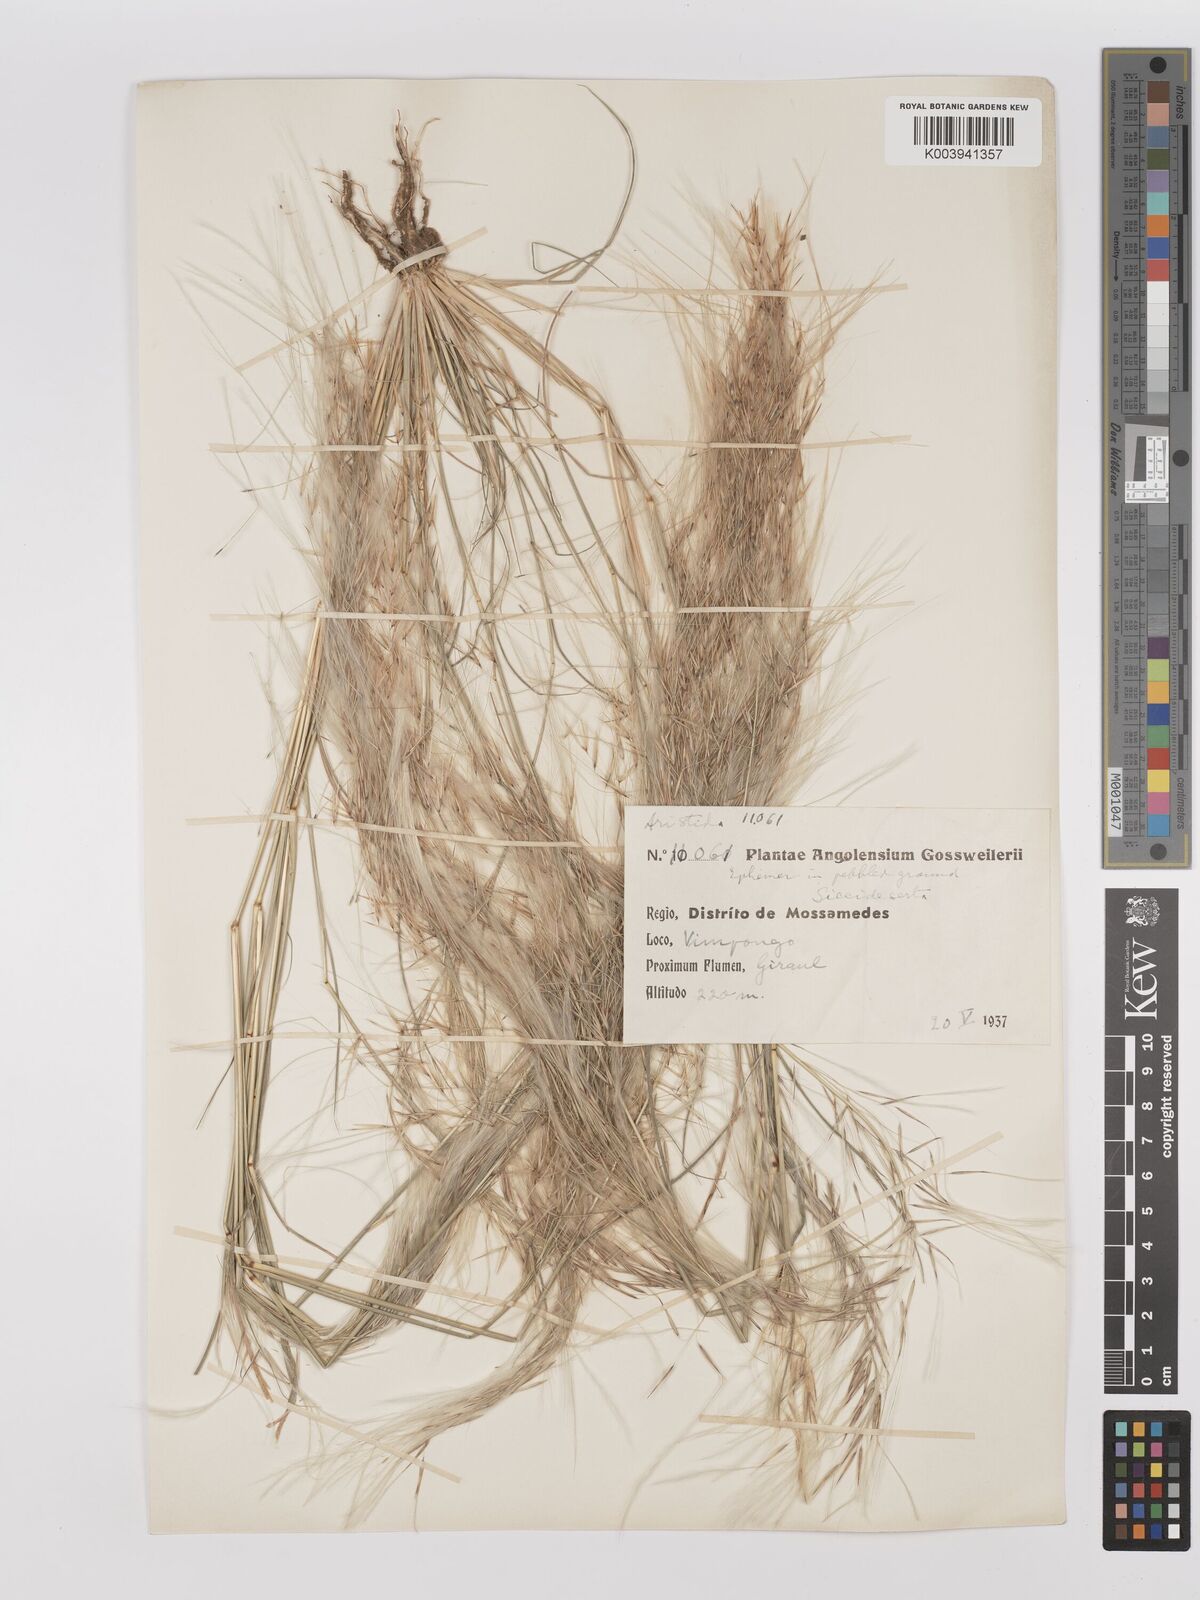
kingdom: Plantae
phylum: Tracheophyta
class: Liliopsida
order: Poales
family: Poaceae
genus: Stipagrostis
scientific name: Stipagrostis hirtigluma
